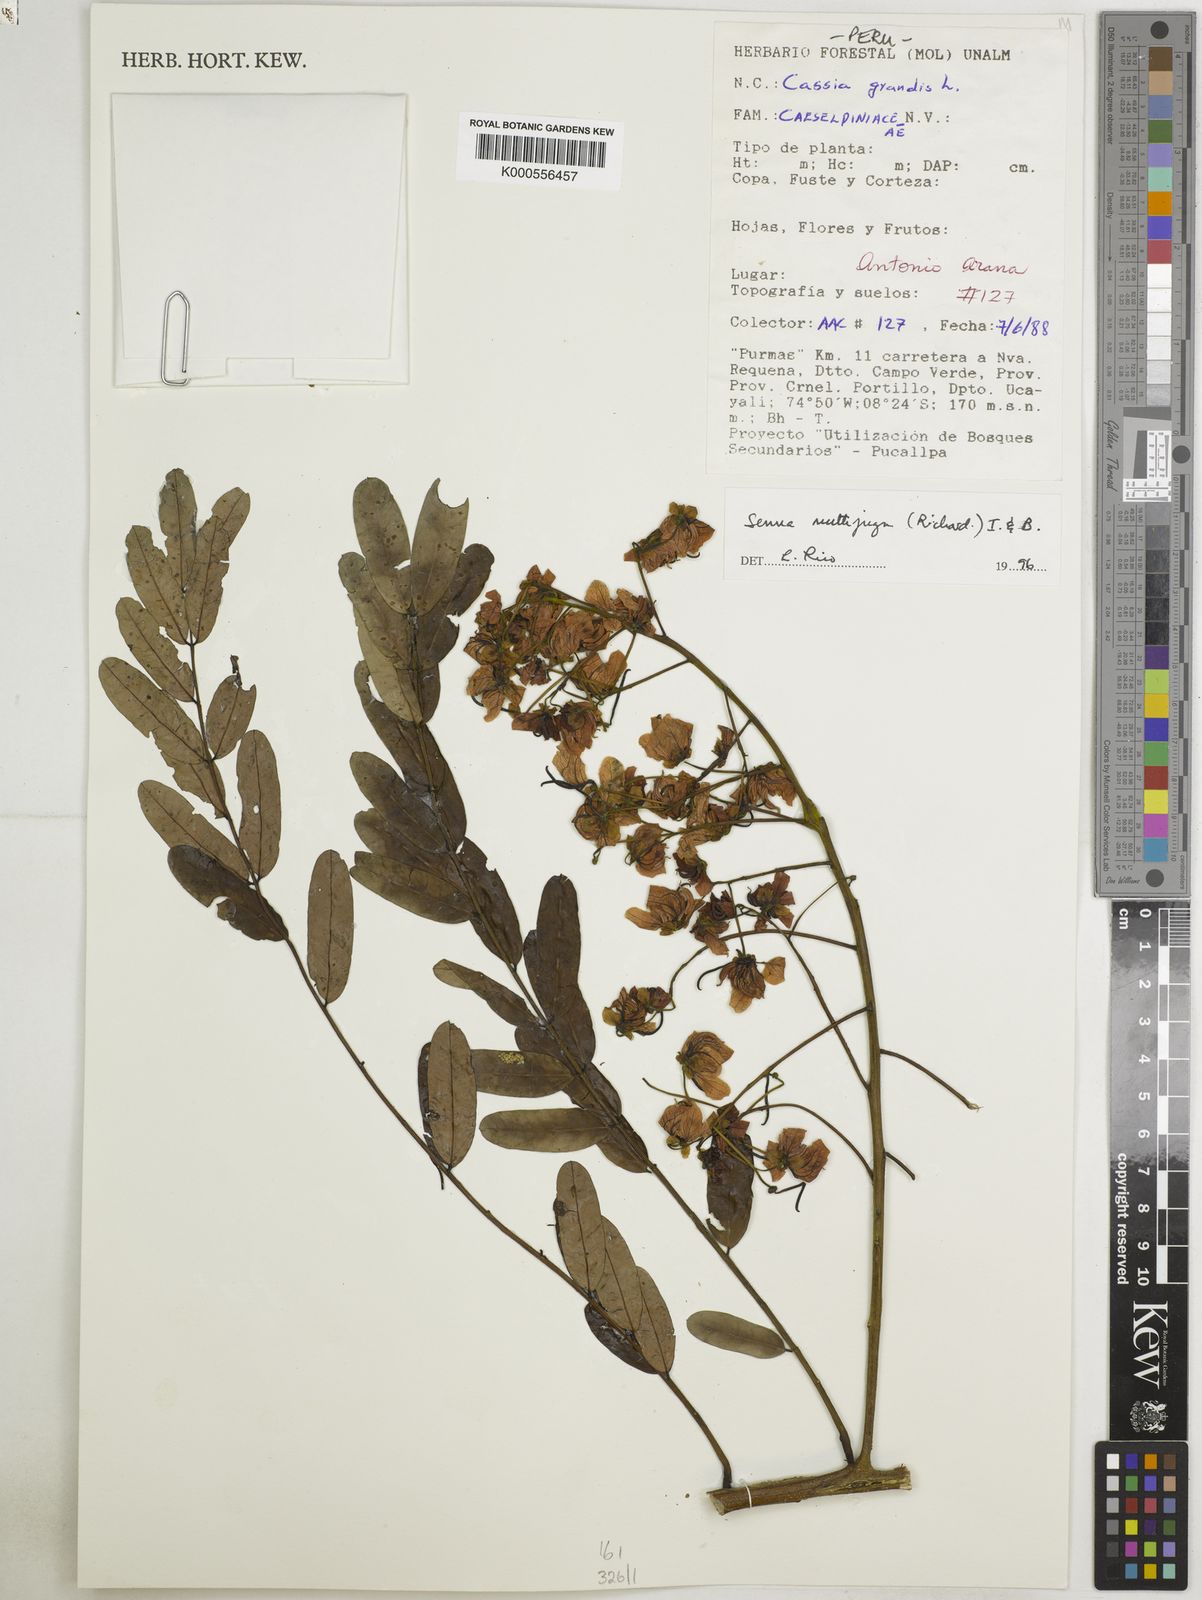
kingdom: Plantae
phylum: Tracheophyta
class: Magnoliopsida
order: Fabales
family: Fabaceae
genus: Senna
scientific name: Senna multijuga
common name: False sicklepod
